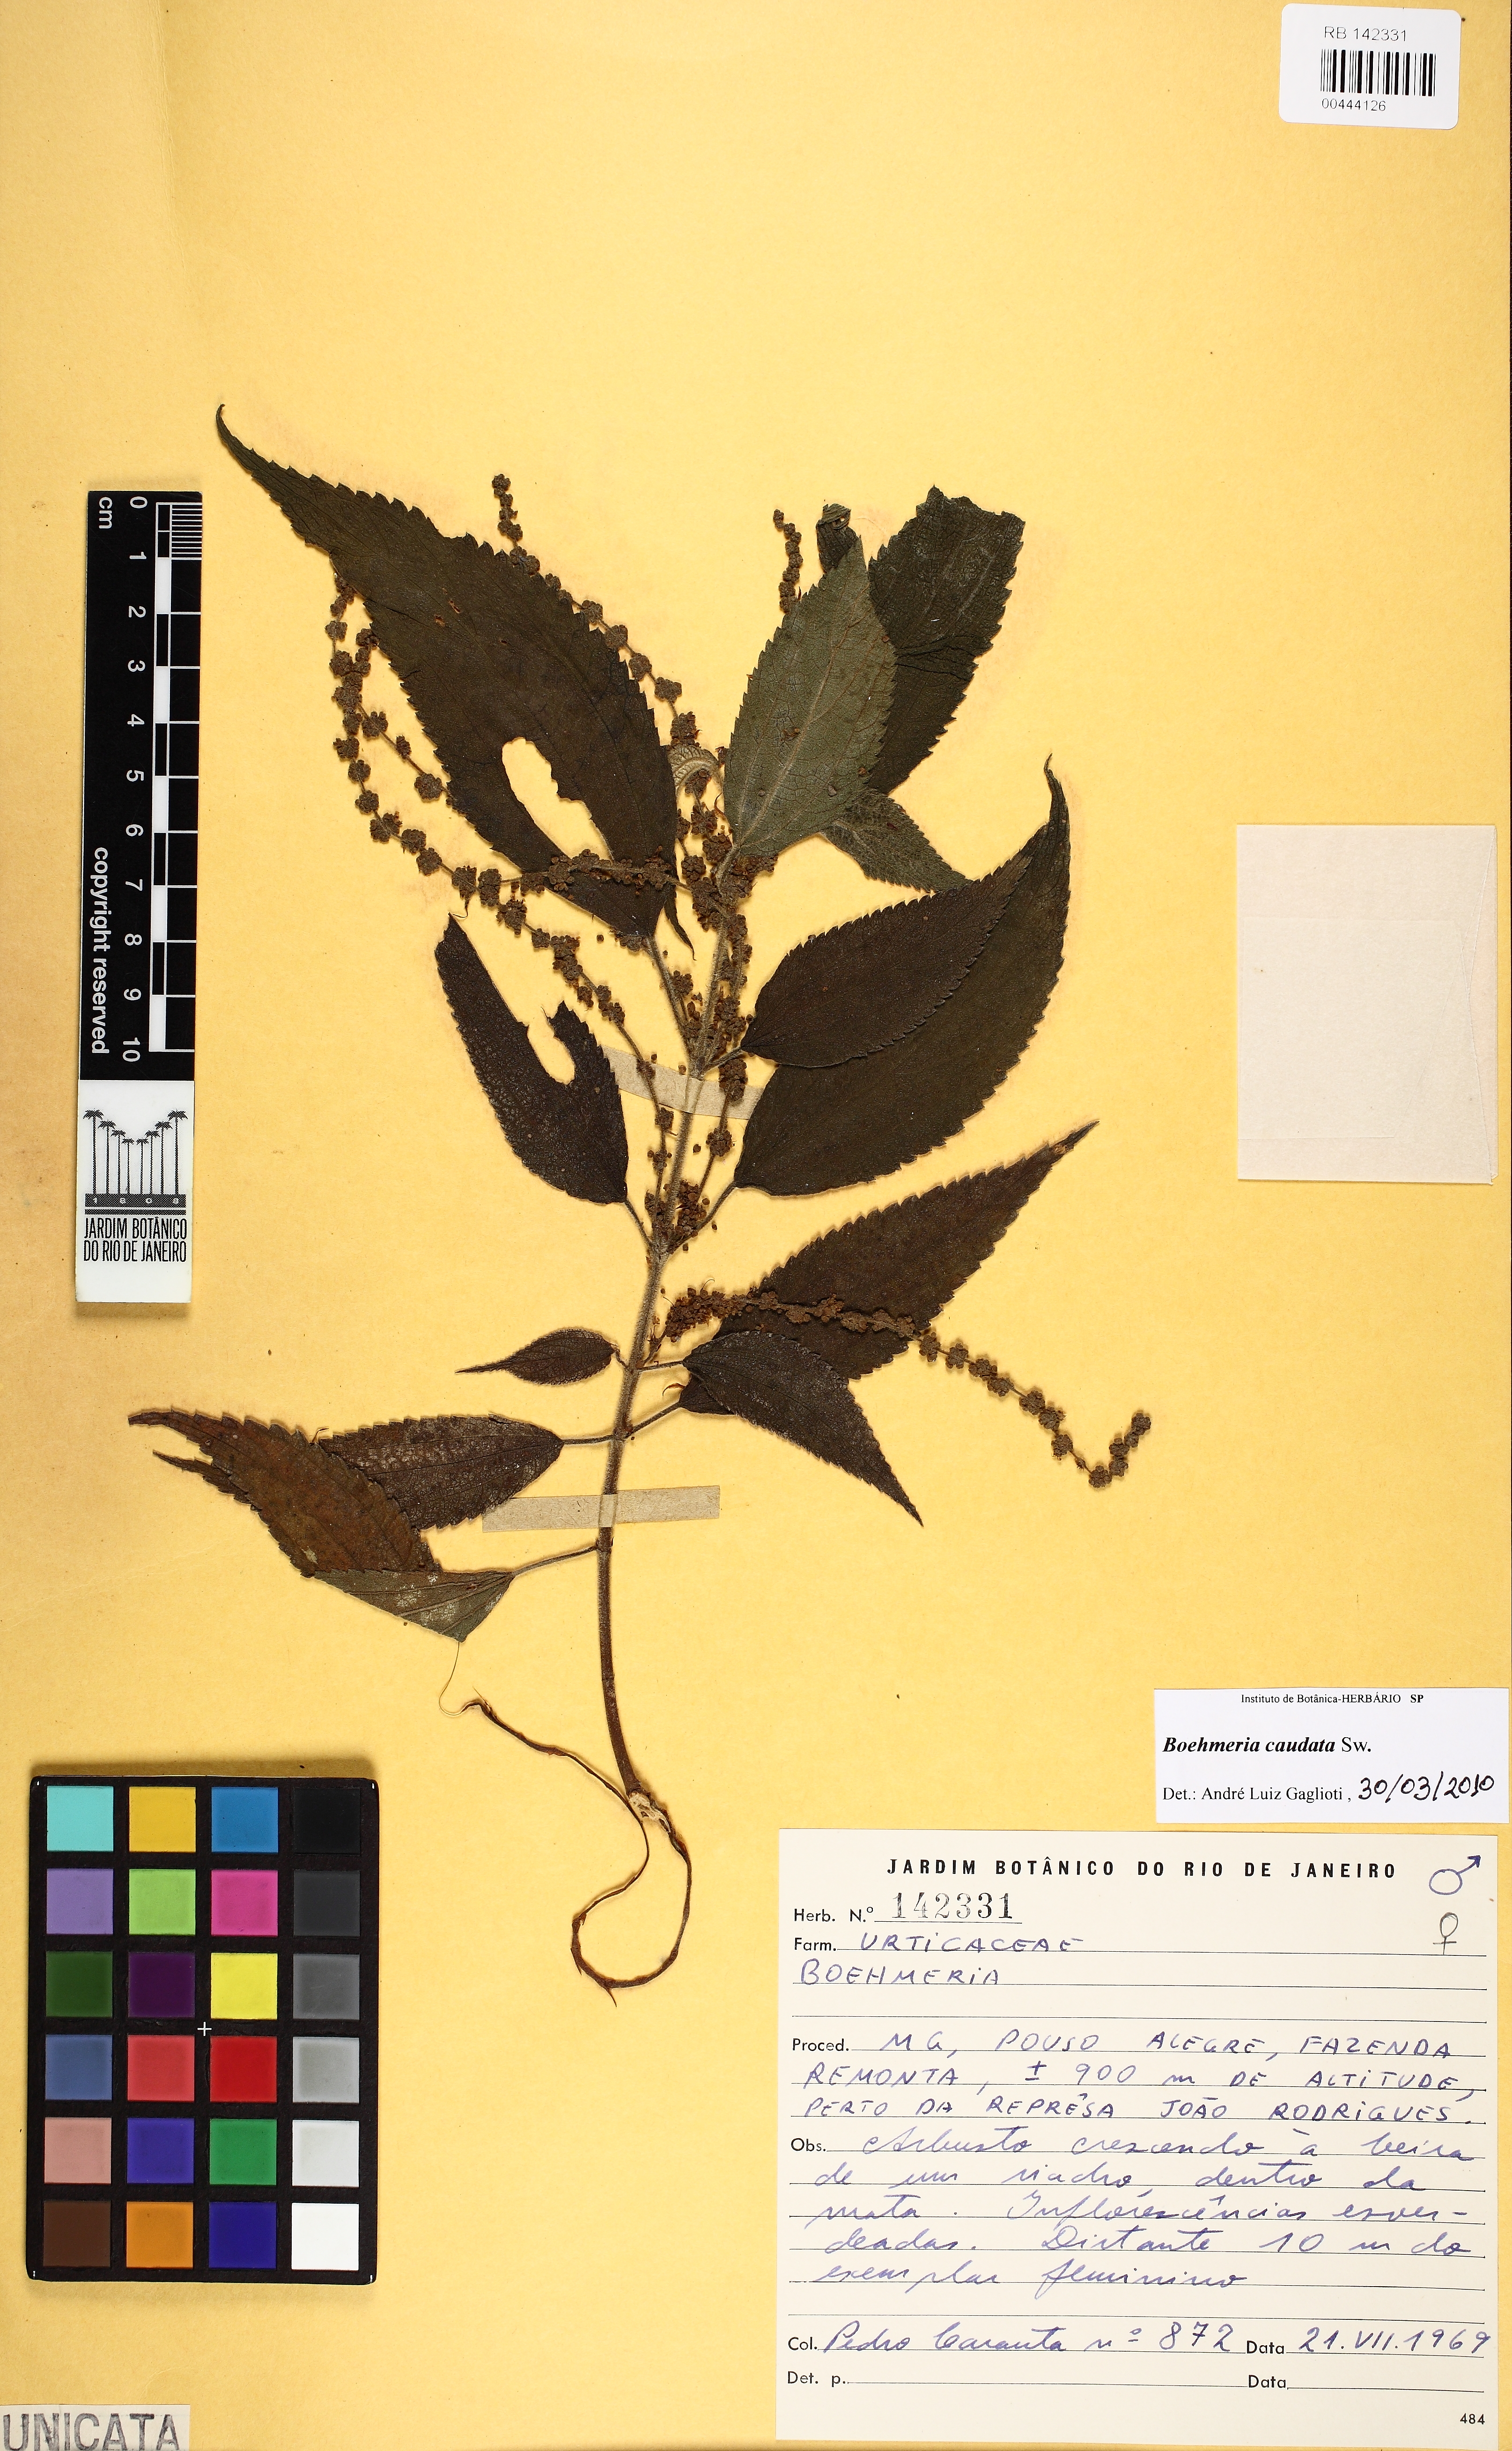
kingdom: Plantae
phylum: Tracheophyta
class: Magnoliopsida
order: Rosales
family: Urticaceae
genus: Boehmeria
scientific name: Boehmeria caudata
